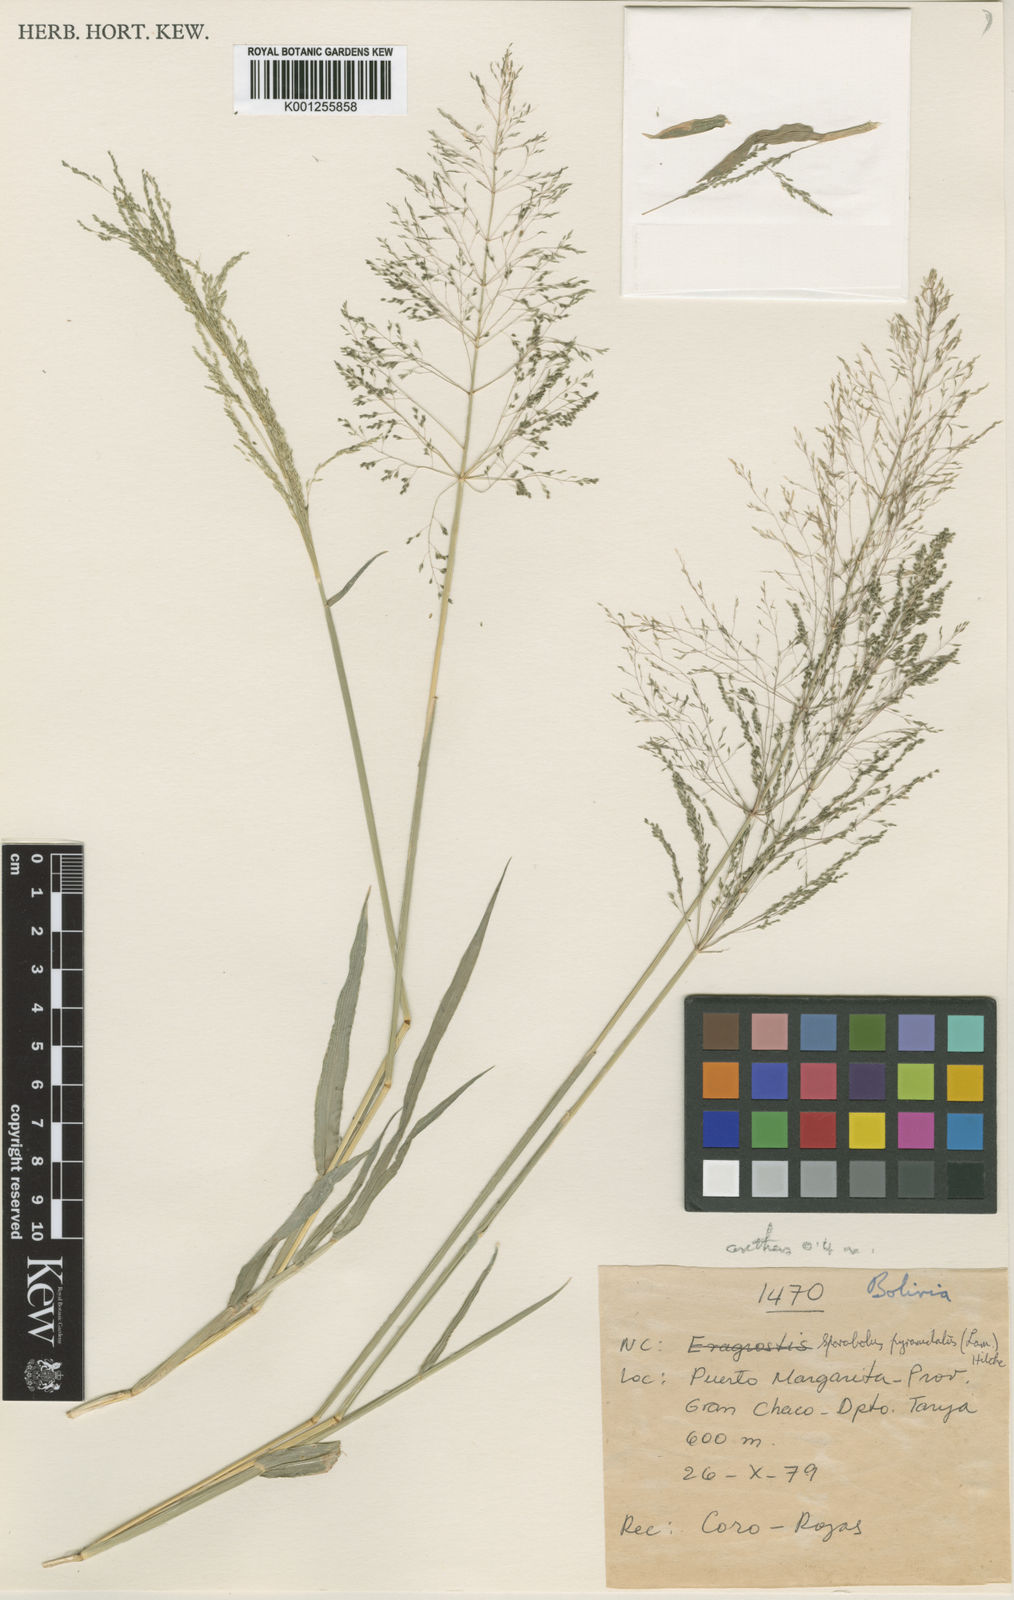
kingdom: Plantae
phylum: Tracheophyta
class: Liliopsida
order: Poales
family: Poaceae
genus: Sporobolus
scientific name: Sporobolus pyramidatus
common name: Whorled dropseed
